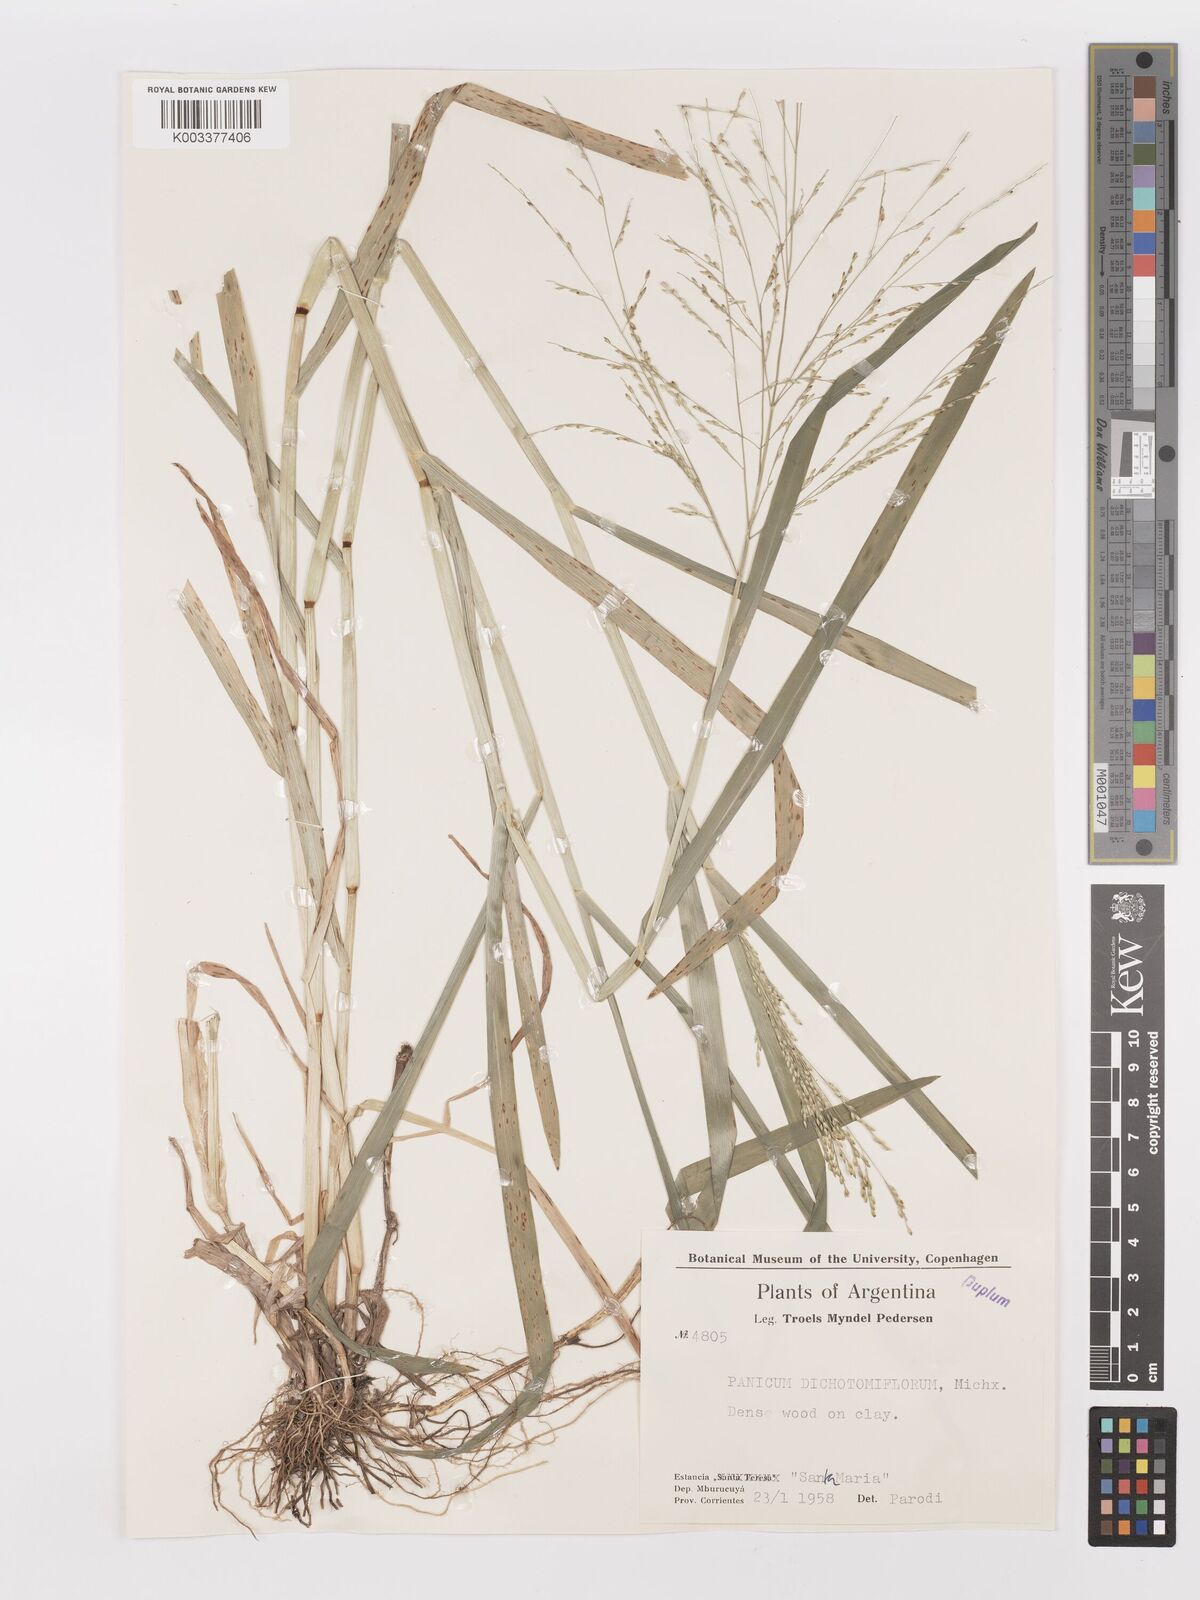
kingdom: Plantae
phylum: Tracheophyta
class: Liliopsida
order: Poales
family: Poaceae
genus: Panicum
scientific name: Panicum dichotomiflorum
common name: Autumn millet
